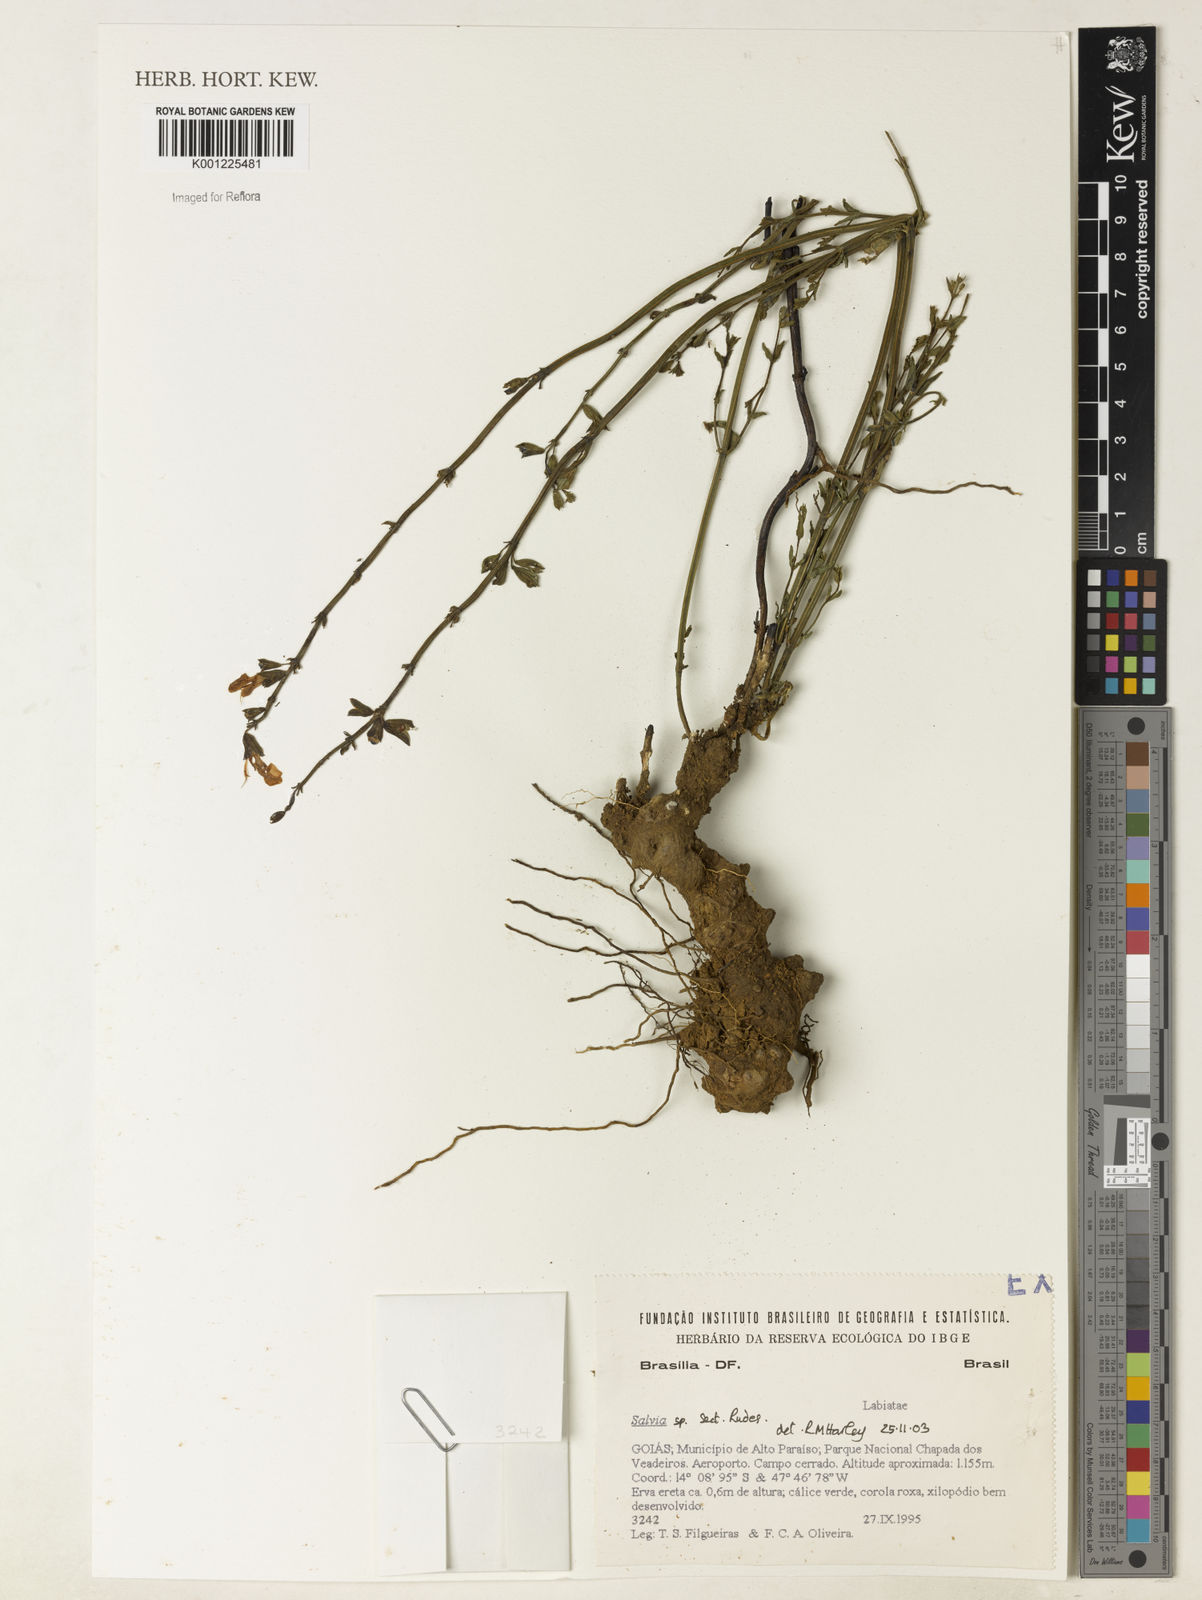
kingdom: Plantae
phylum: Tracheophyta
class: Magnoliopsida
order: Lamiales
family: Lamiaceae
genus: Salvia
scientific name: Salvia
